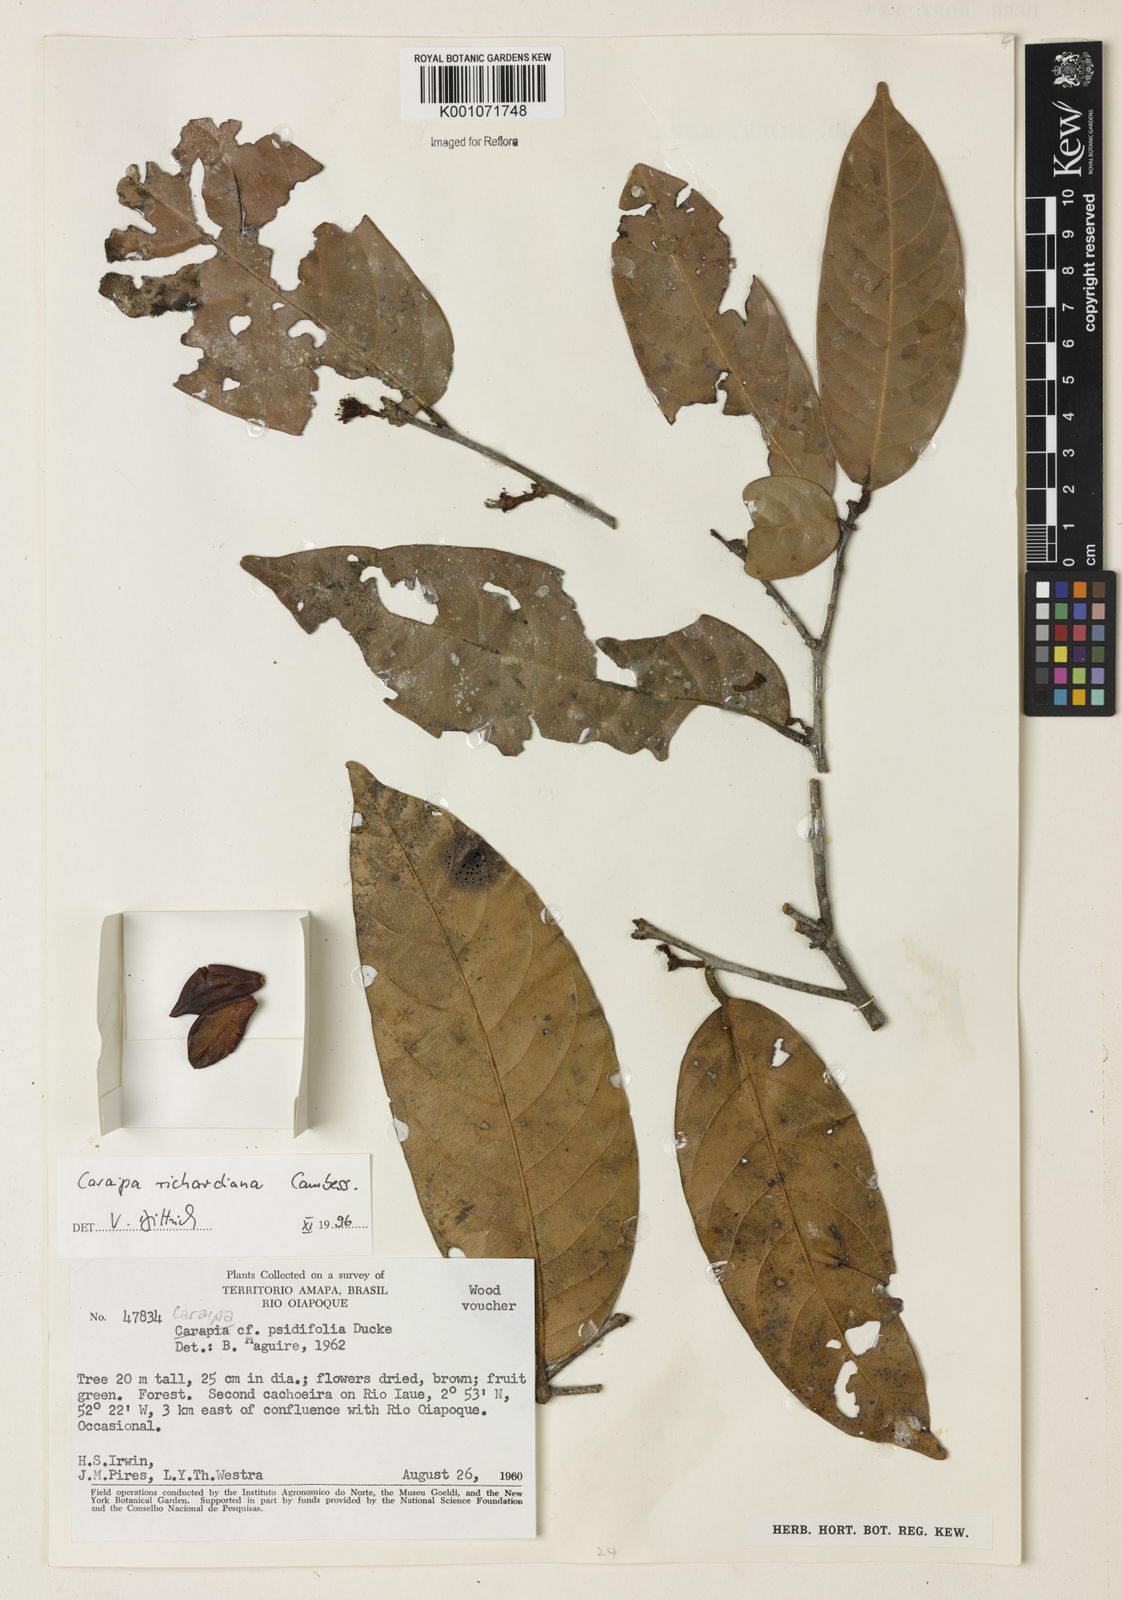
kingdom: Plantae
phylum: Tracheophyta
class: Magnoliopsida
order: Malpighiales
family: Calophyllaceae
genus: Caraipa
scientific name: Caraipa richardiana
